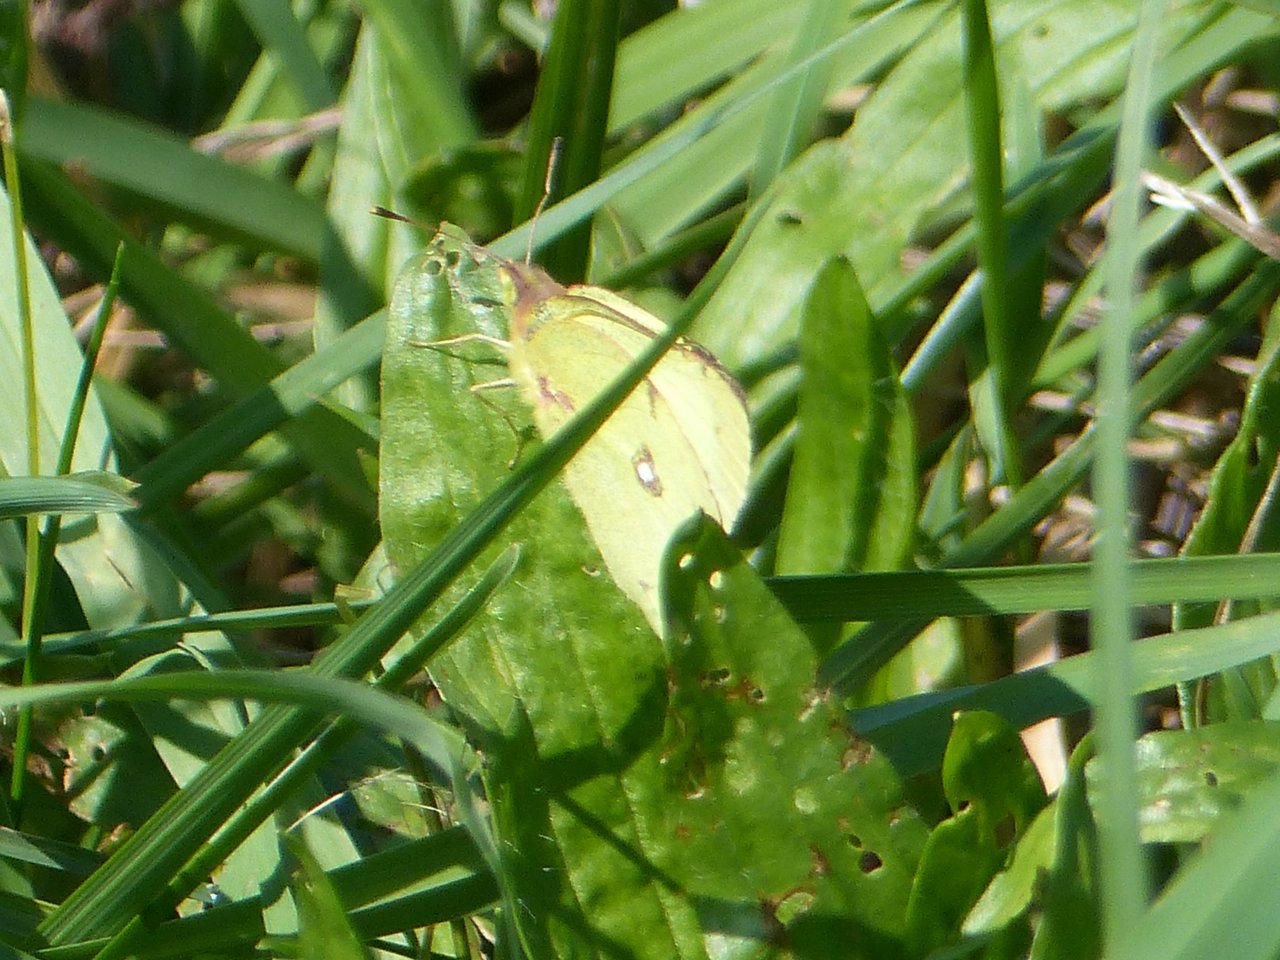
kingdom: Animalia
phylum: Arthropoda
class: Insecta
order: Lepidoptera
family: Pieridae
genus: Colias
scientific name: Colias philodice
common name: Clouded Sulphur
